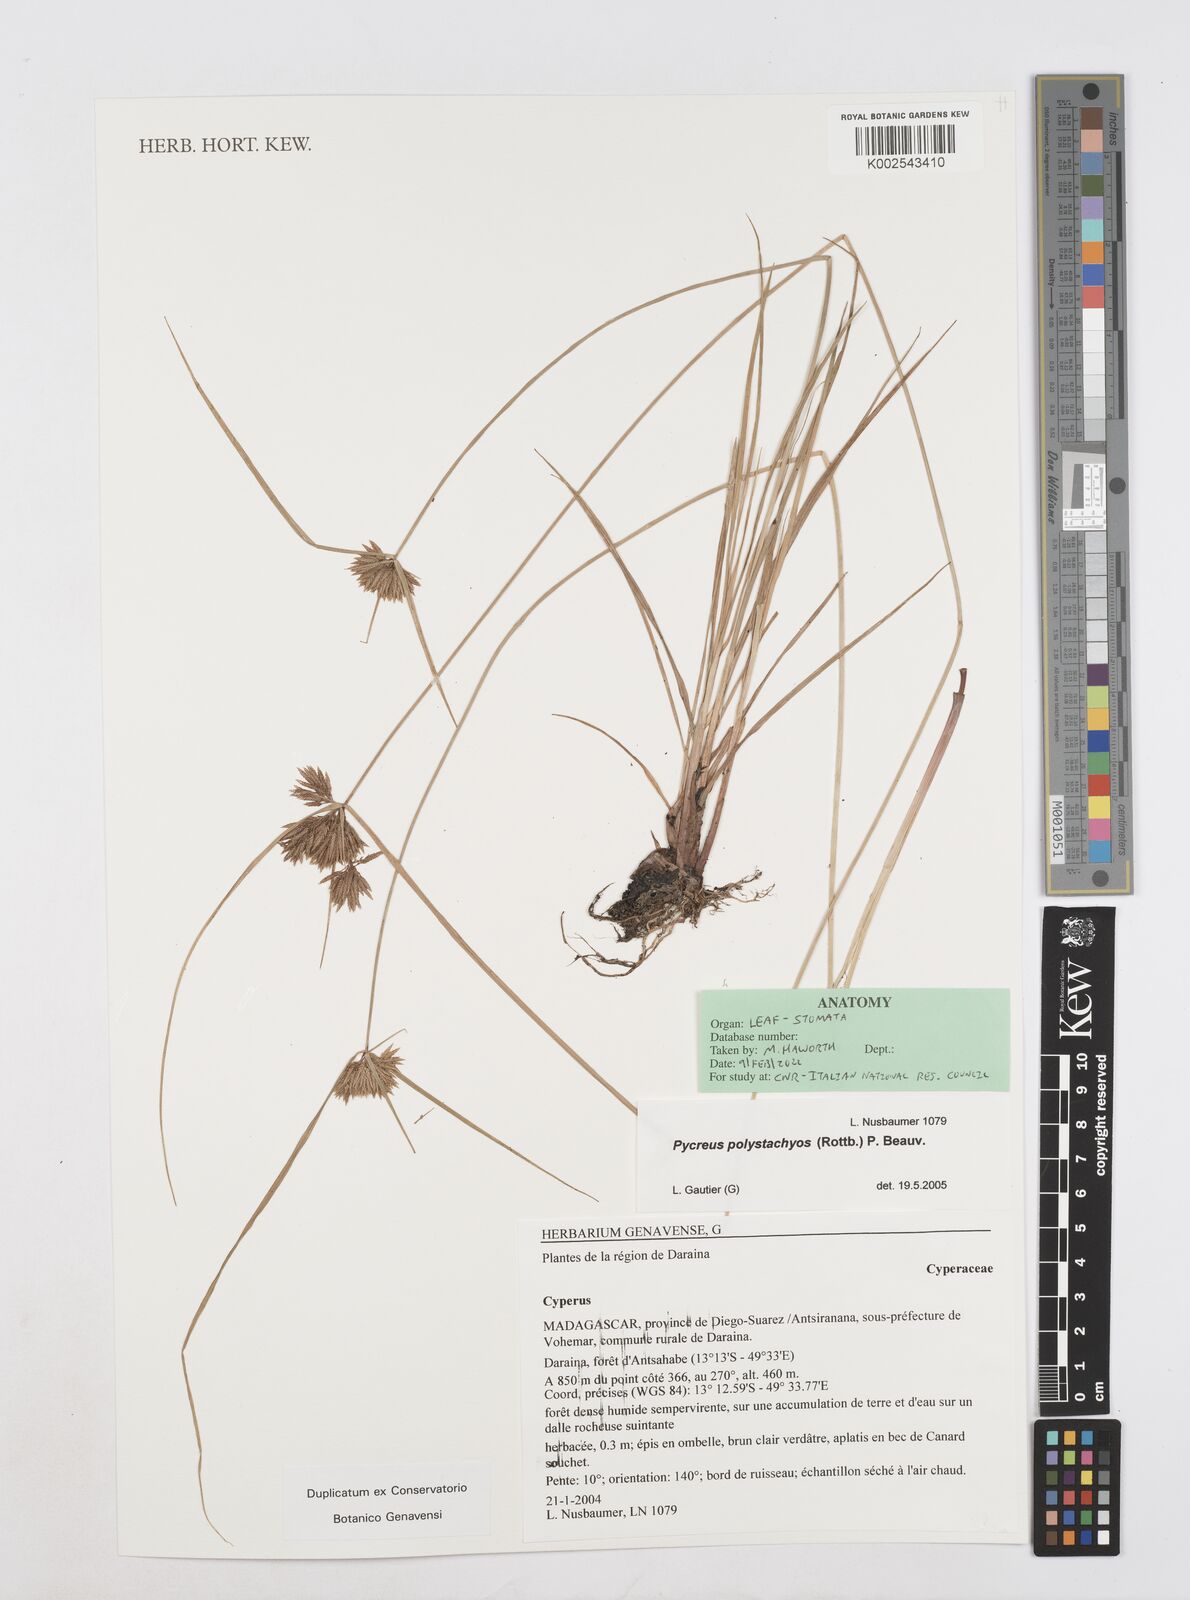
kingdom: Plantae
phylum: Tracheophyta
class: Liliopsida
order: Poales
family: Cyperaceae
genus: Cyperus
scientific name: Cyperus polystachyos
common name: Bunchy flat sedge
